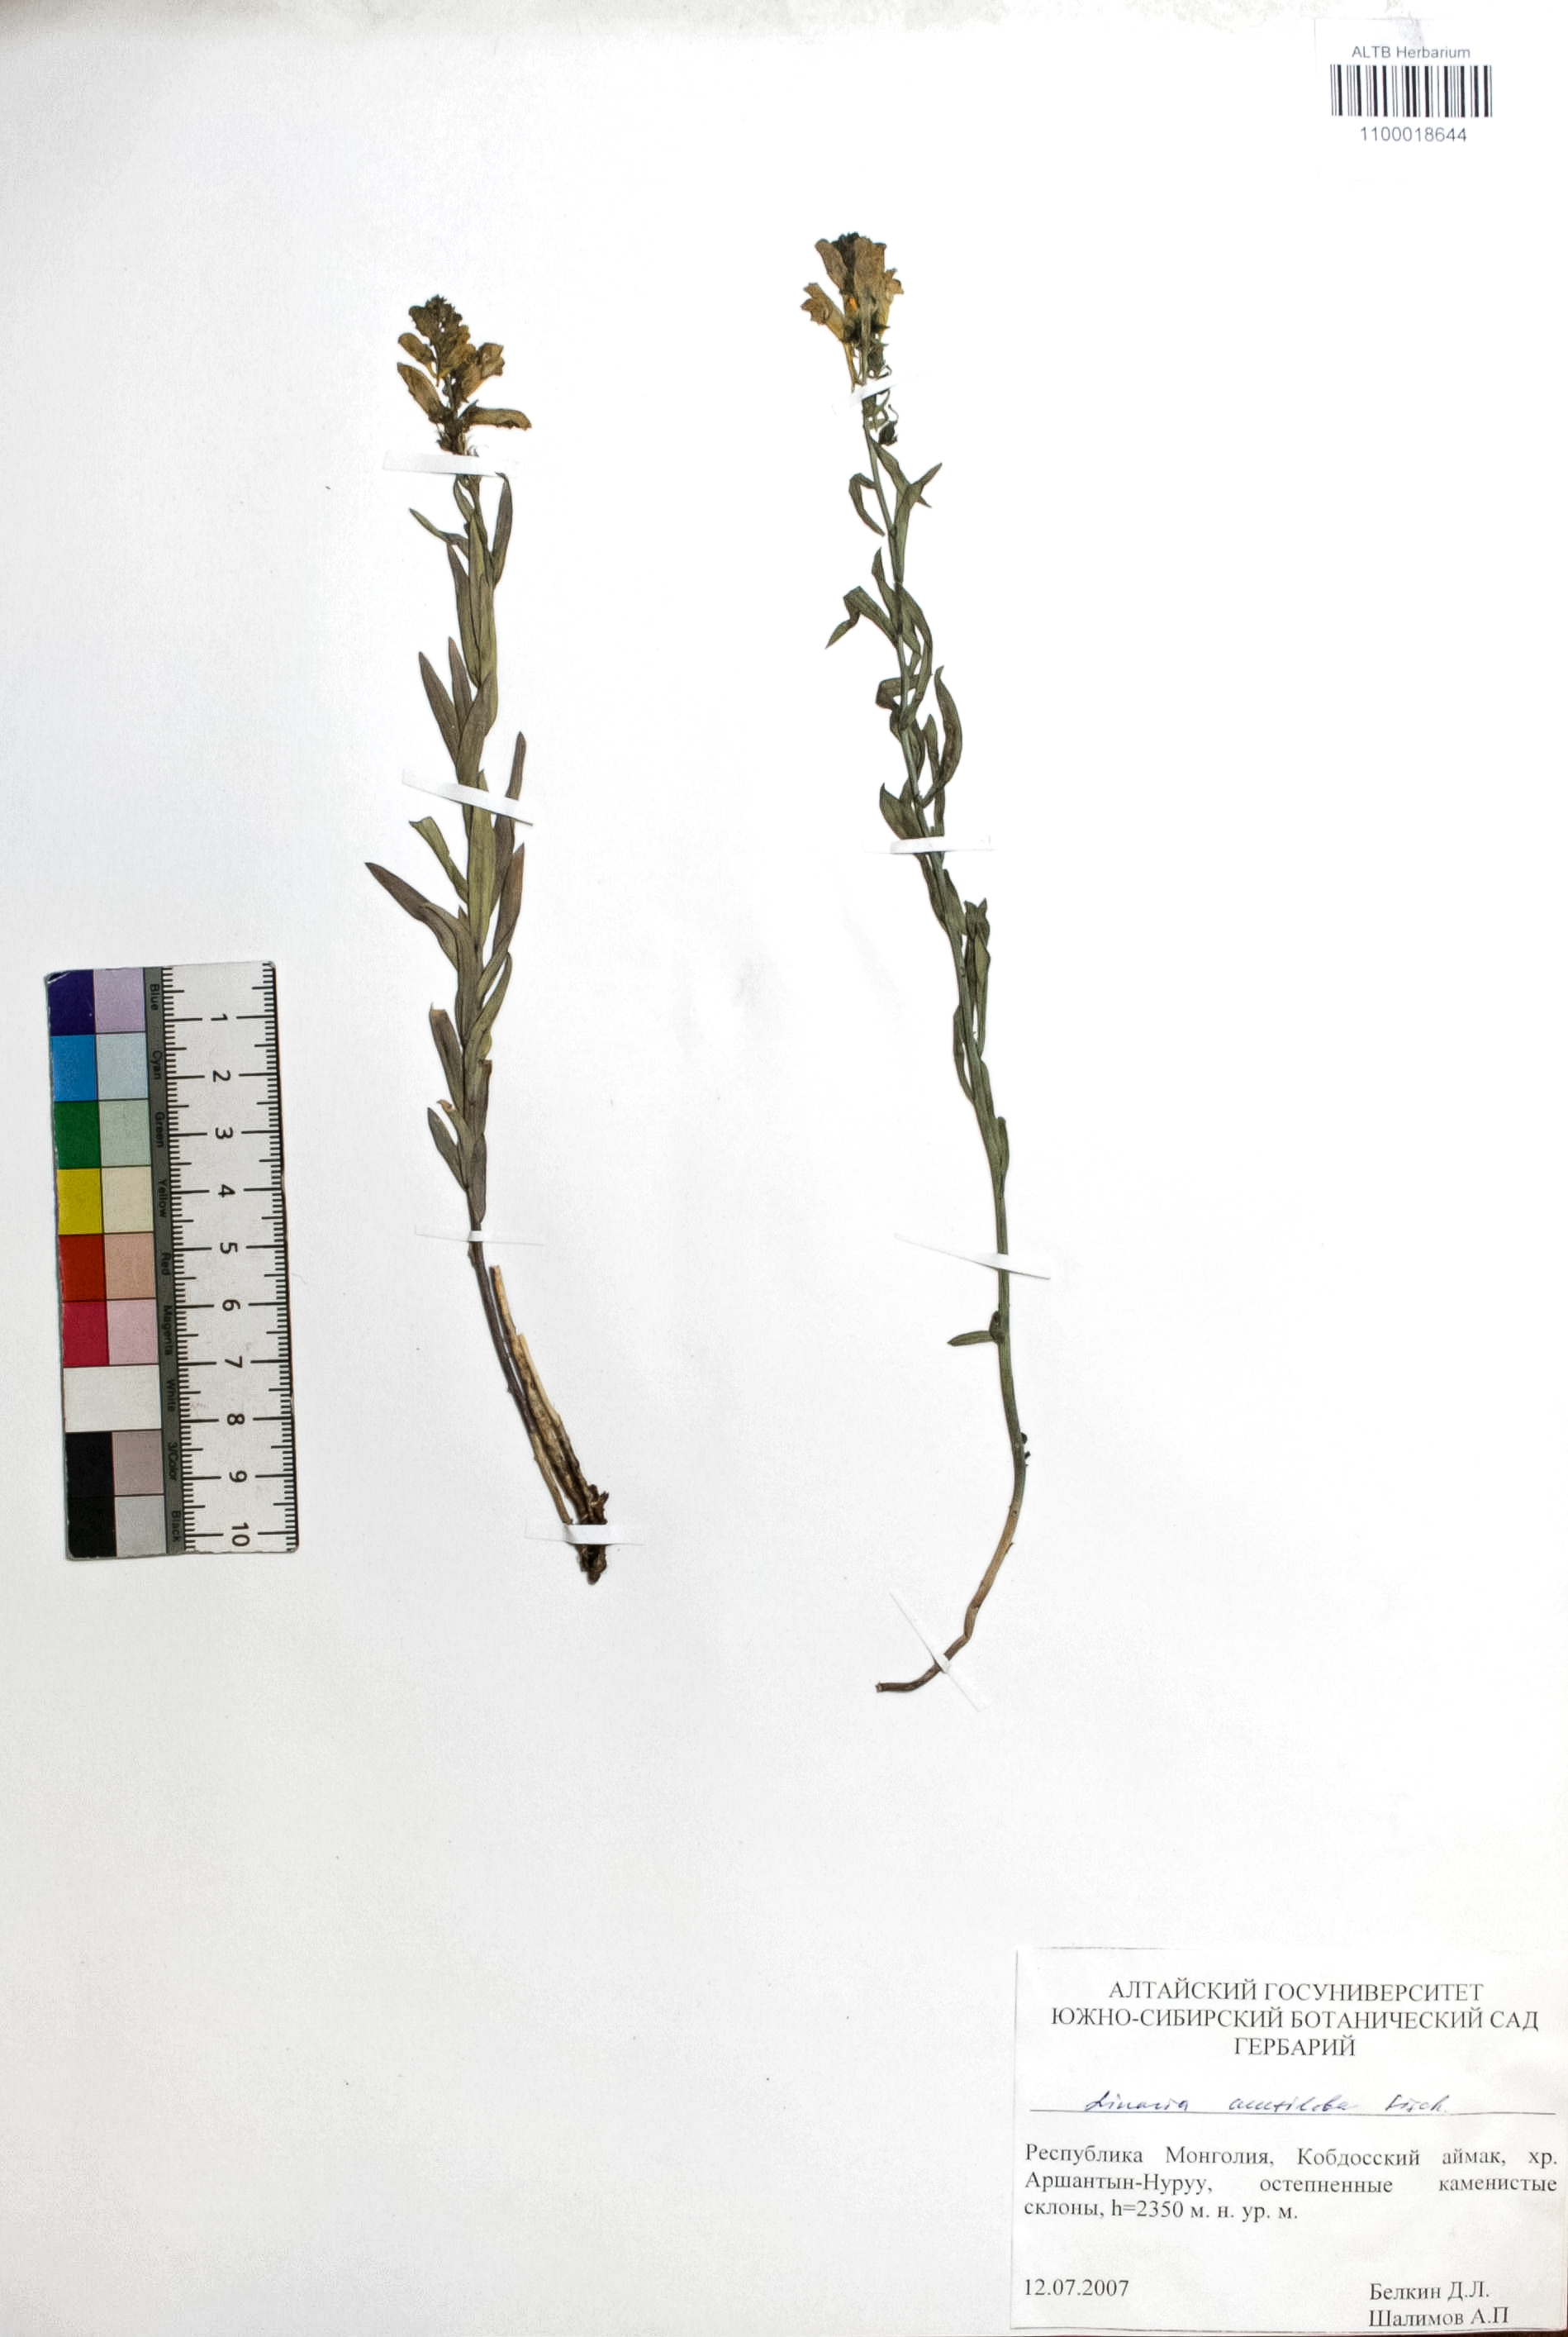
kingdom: Plantae
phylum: Tracheophyta
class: Magnoliopsida
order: Lamiales
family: Plantaginaceae
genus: Linaria
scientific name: Linaria acutiloba
